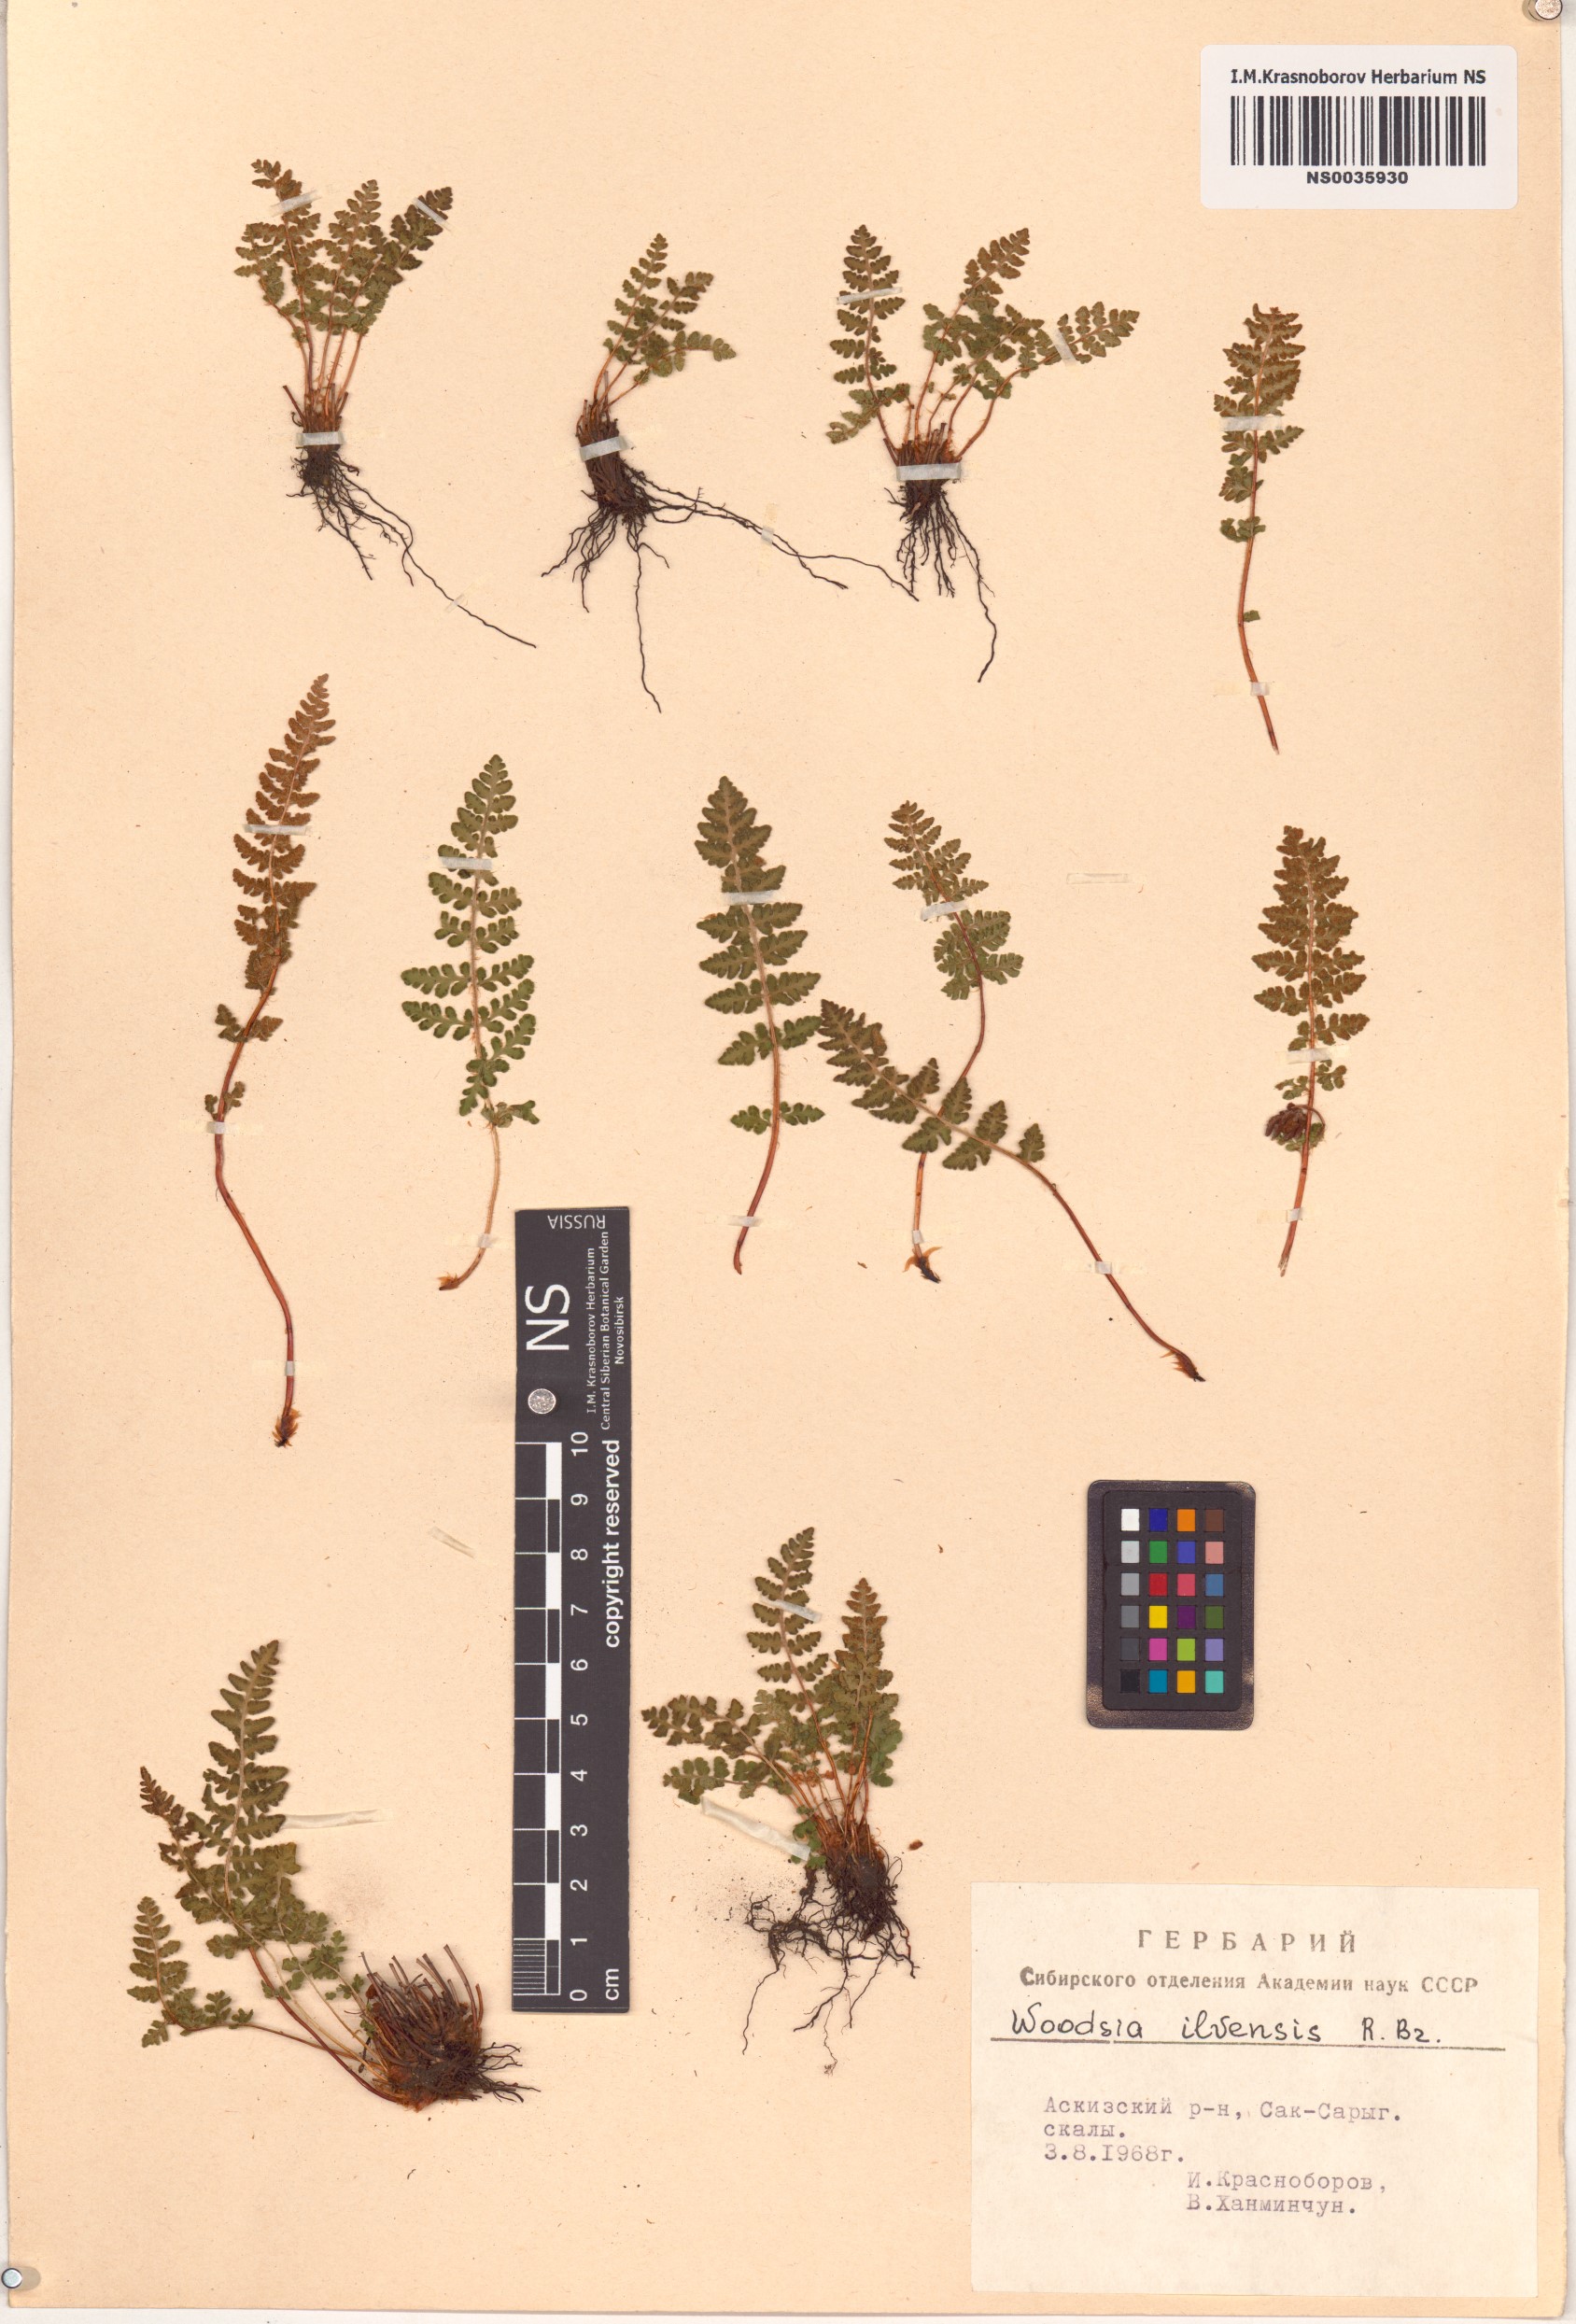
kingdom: Plantae
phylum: Tracheophyta
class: Polypodiopsida
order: Polypodiales
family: Woodsiaceae
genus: Woodsia
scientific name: Woodsia ilvensis
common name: Fragrant woodsia
